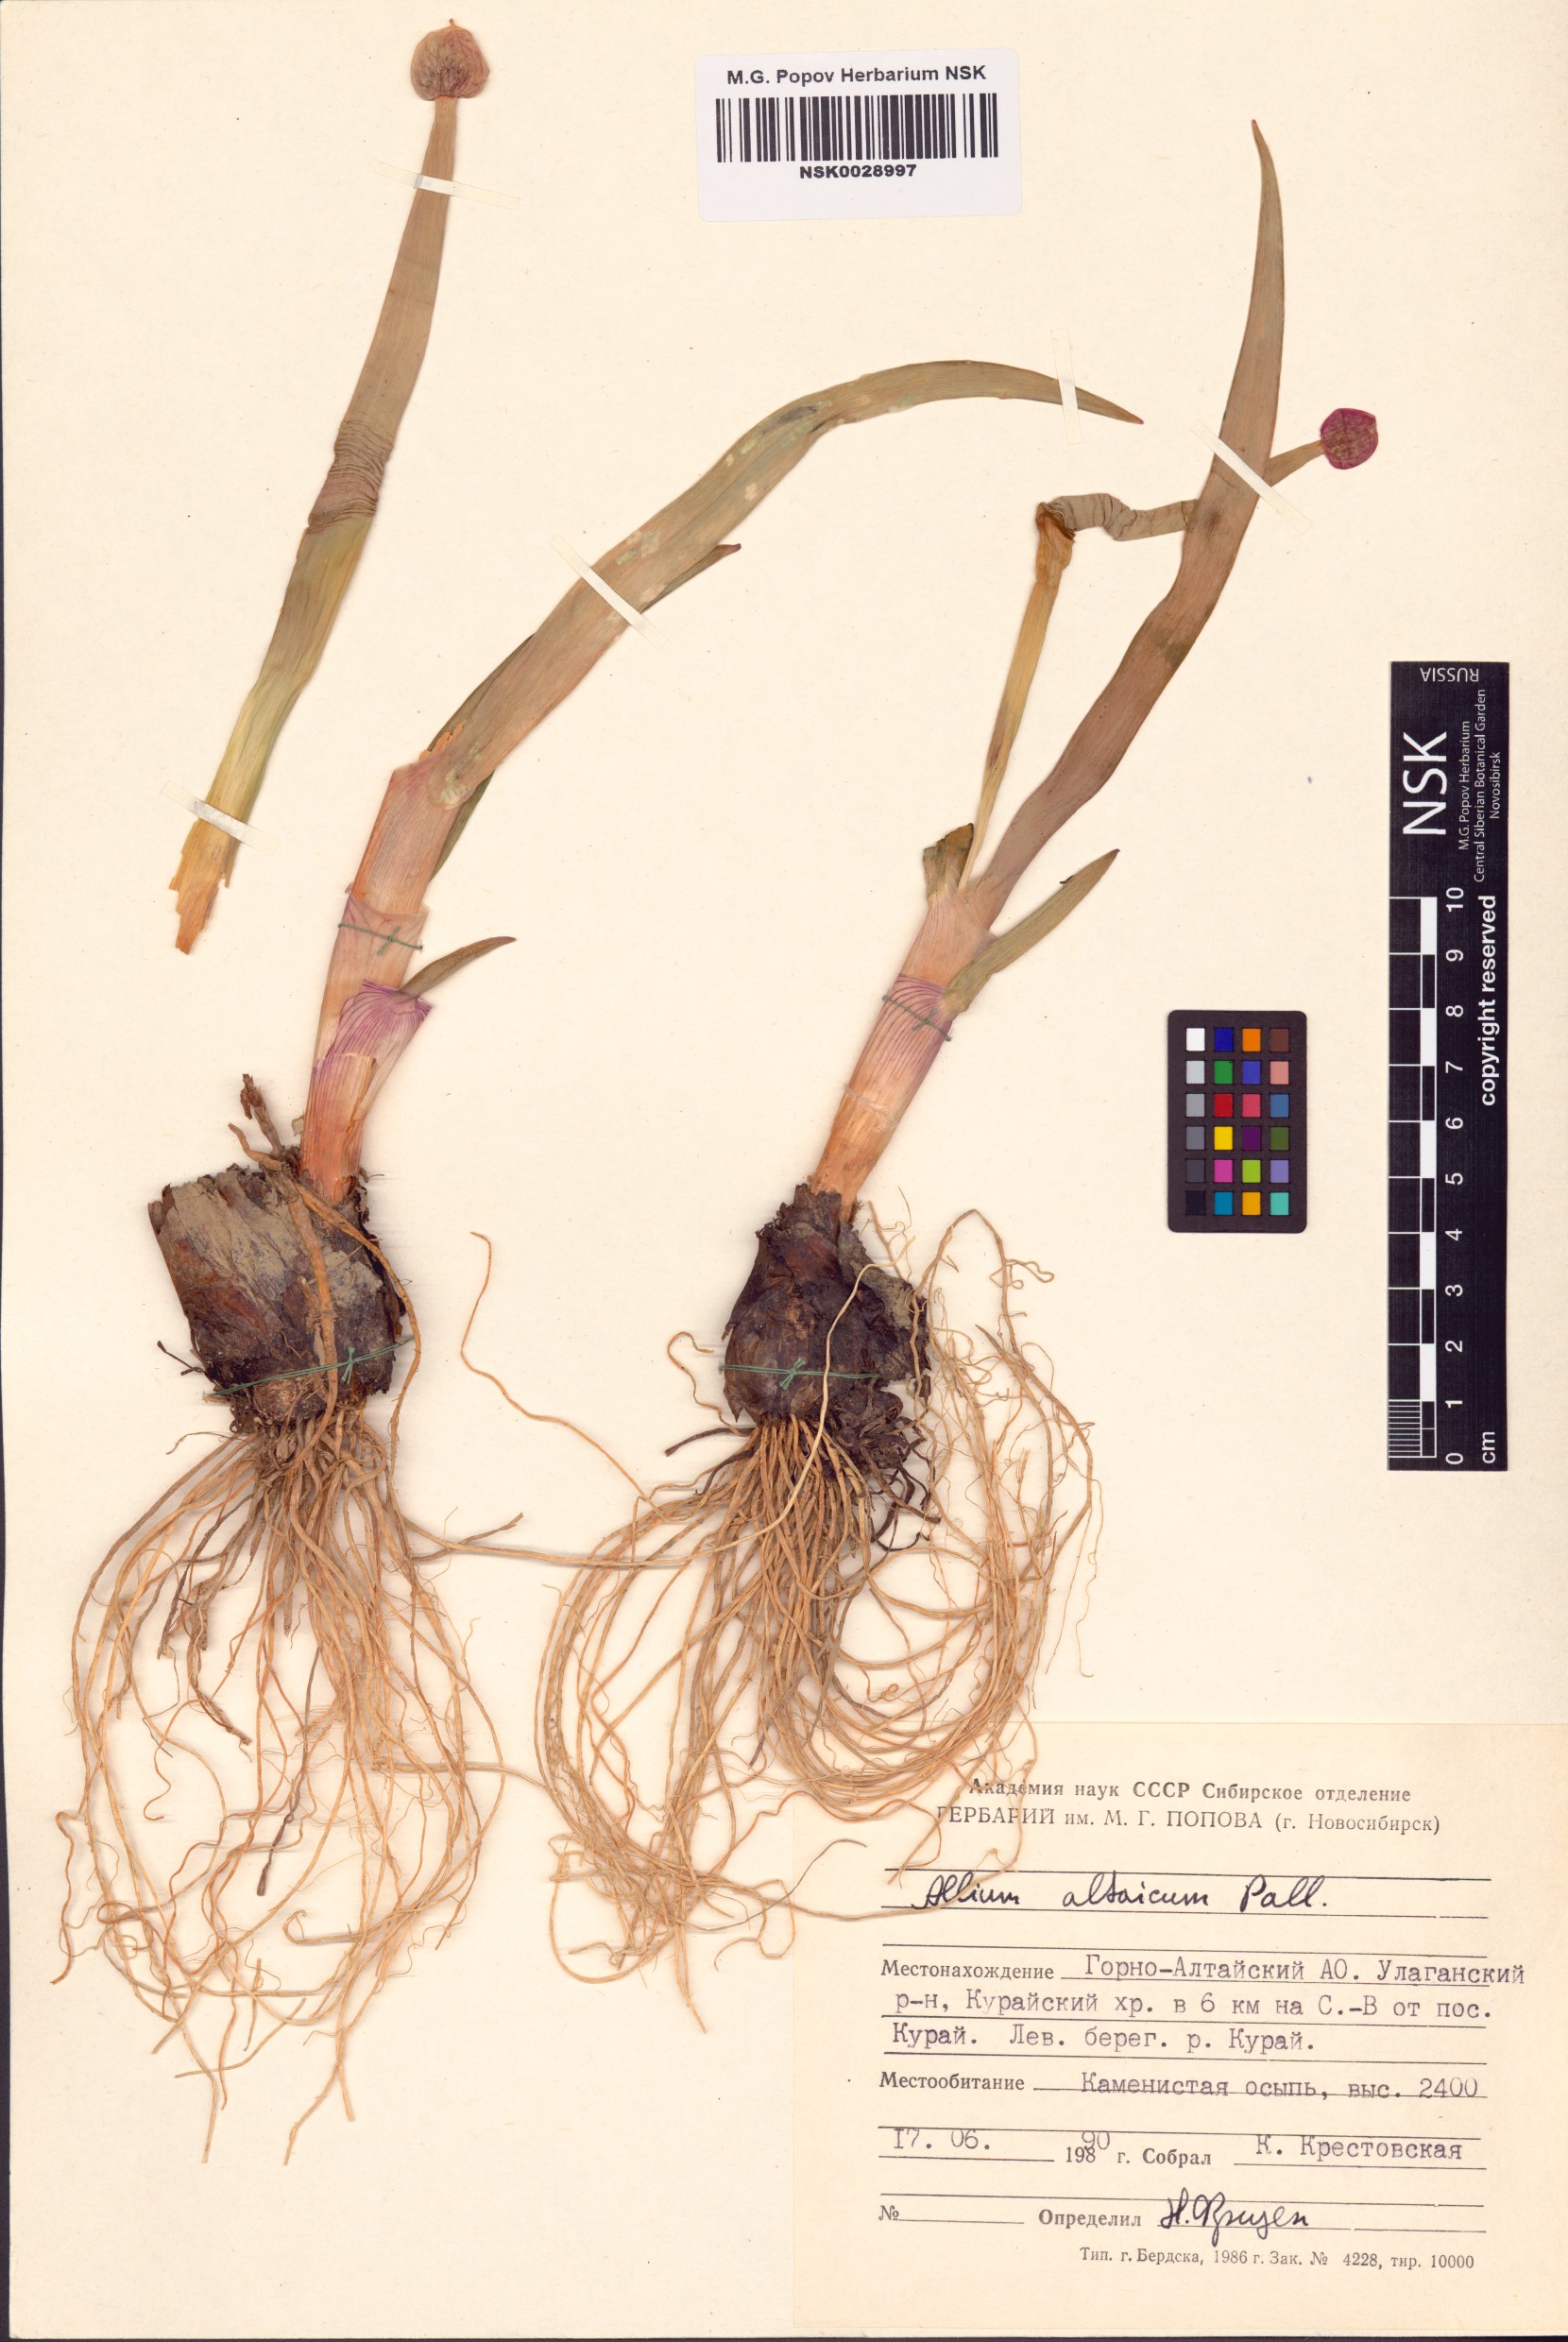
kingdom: Plantae
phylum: Tracheophyta
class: Liliopsida
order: Asparagales
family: Amaryllidaceae
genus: Allium
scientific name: Allium altaicum
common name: Altai onion
